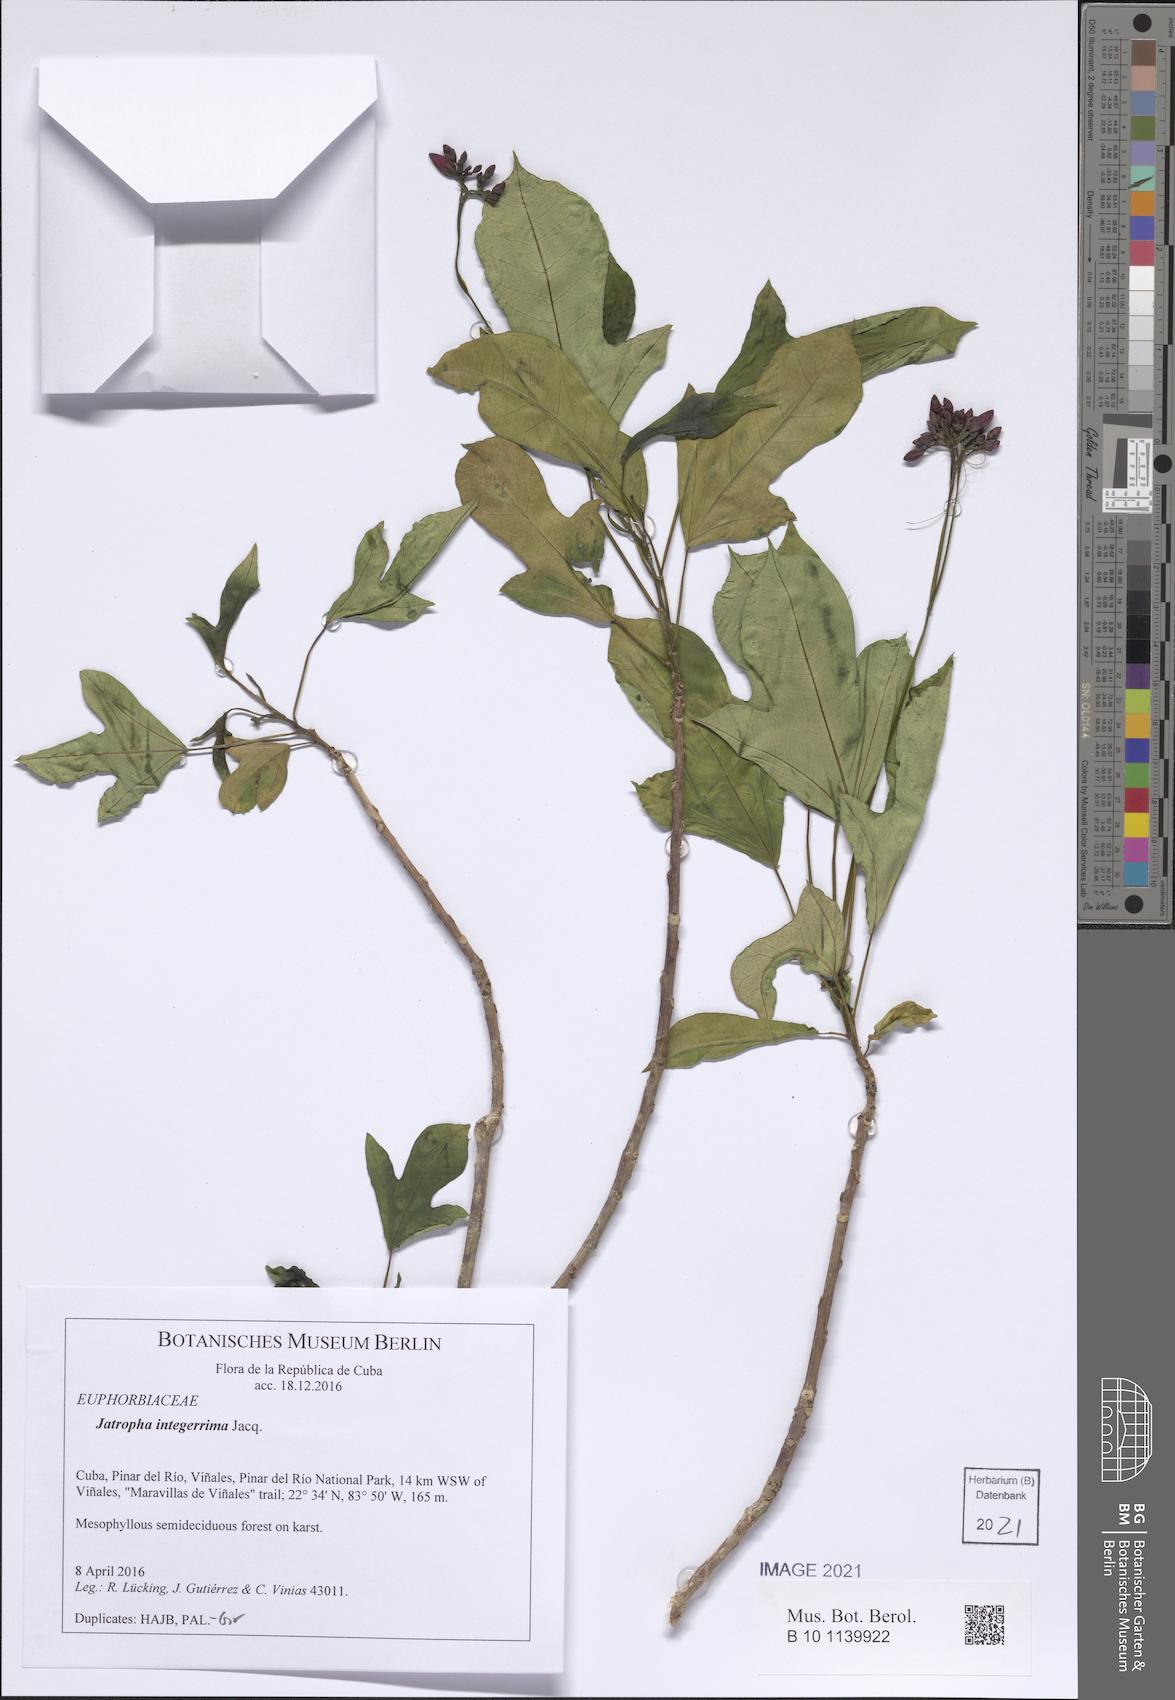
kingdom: Plantae
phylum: Tracheophyta
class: Magnoliopsida
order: Malpighiales
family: Euphorbiaceae
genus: Jatropha
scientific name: Jatropha integerrima
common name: Peregrina
